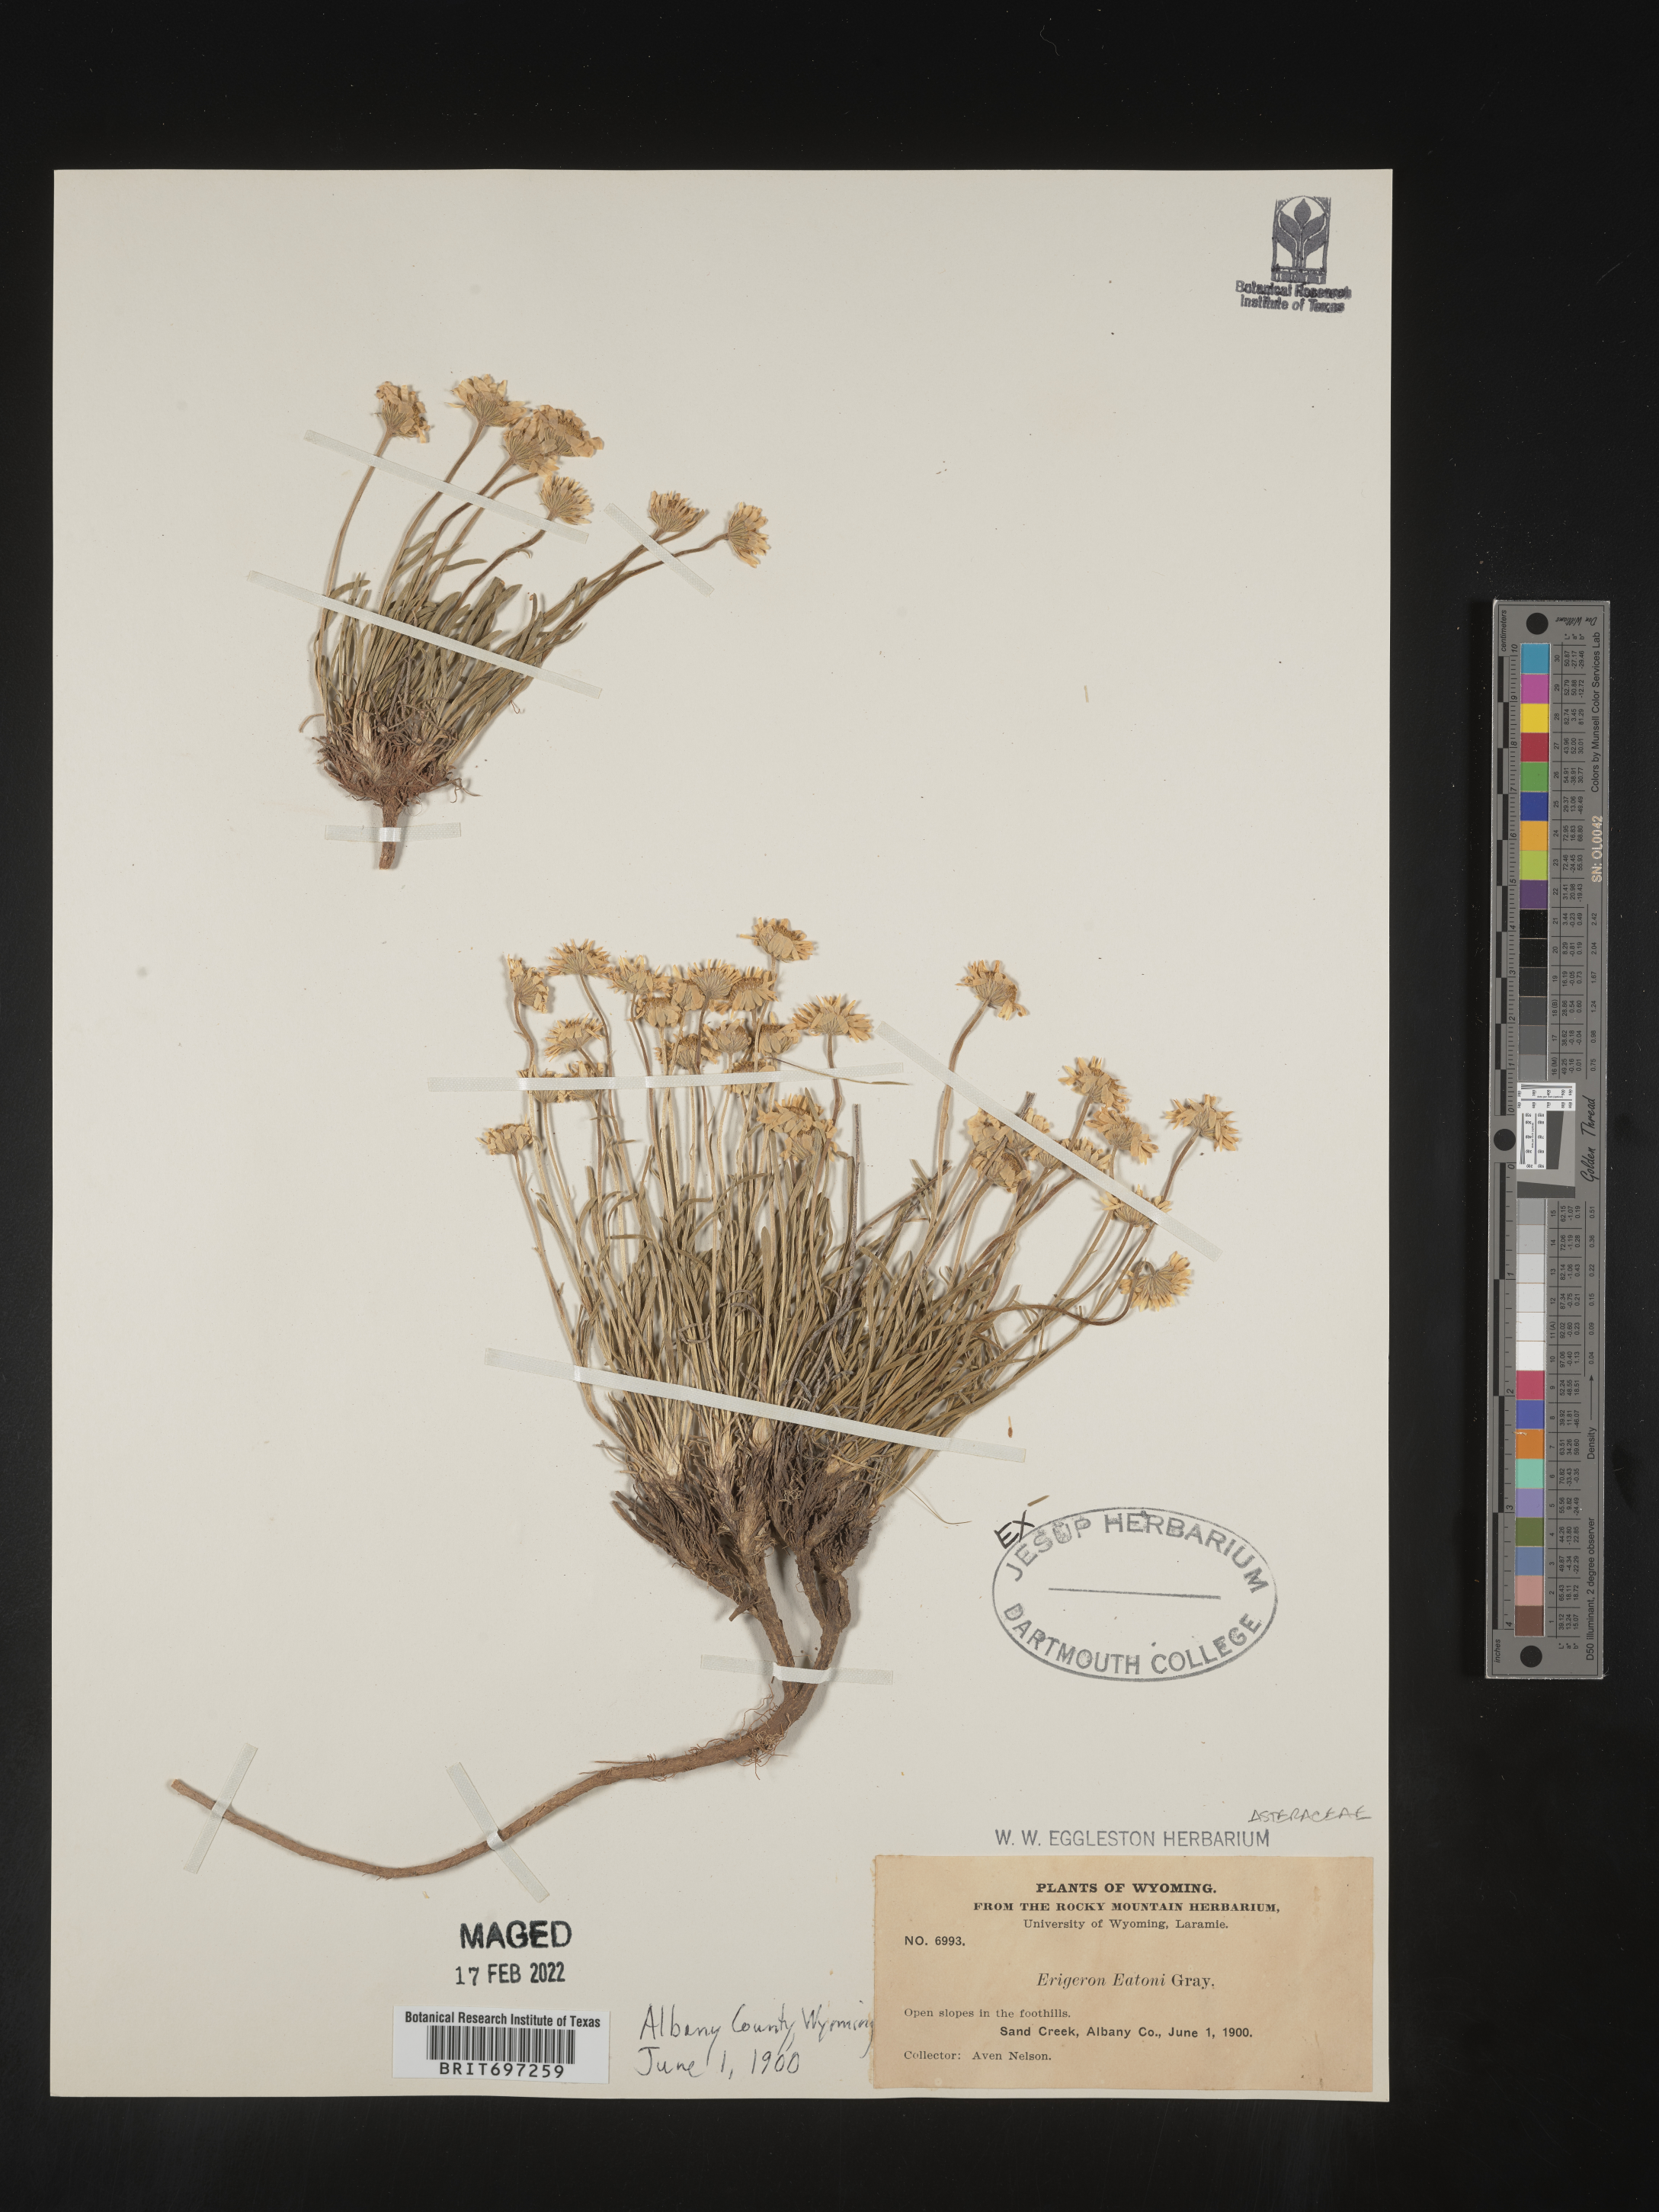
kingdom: Plantae
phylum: Tracheophyta
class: Magnoliopsida
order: Asterales
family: Asteraceae
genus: Erigeron
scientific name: Erigeron eatonii
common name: Eaton's fleabane
